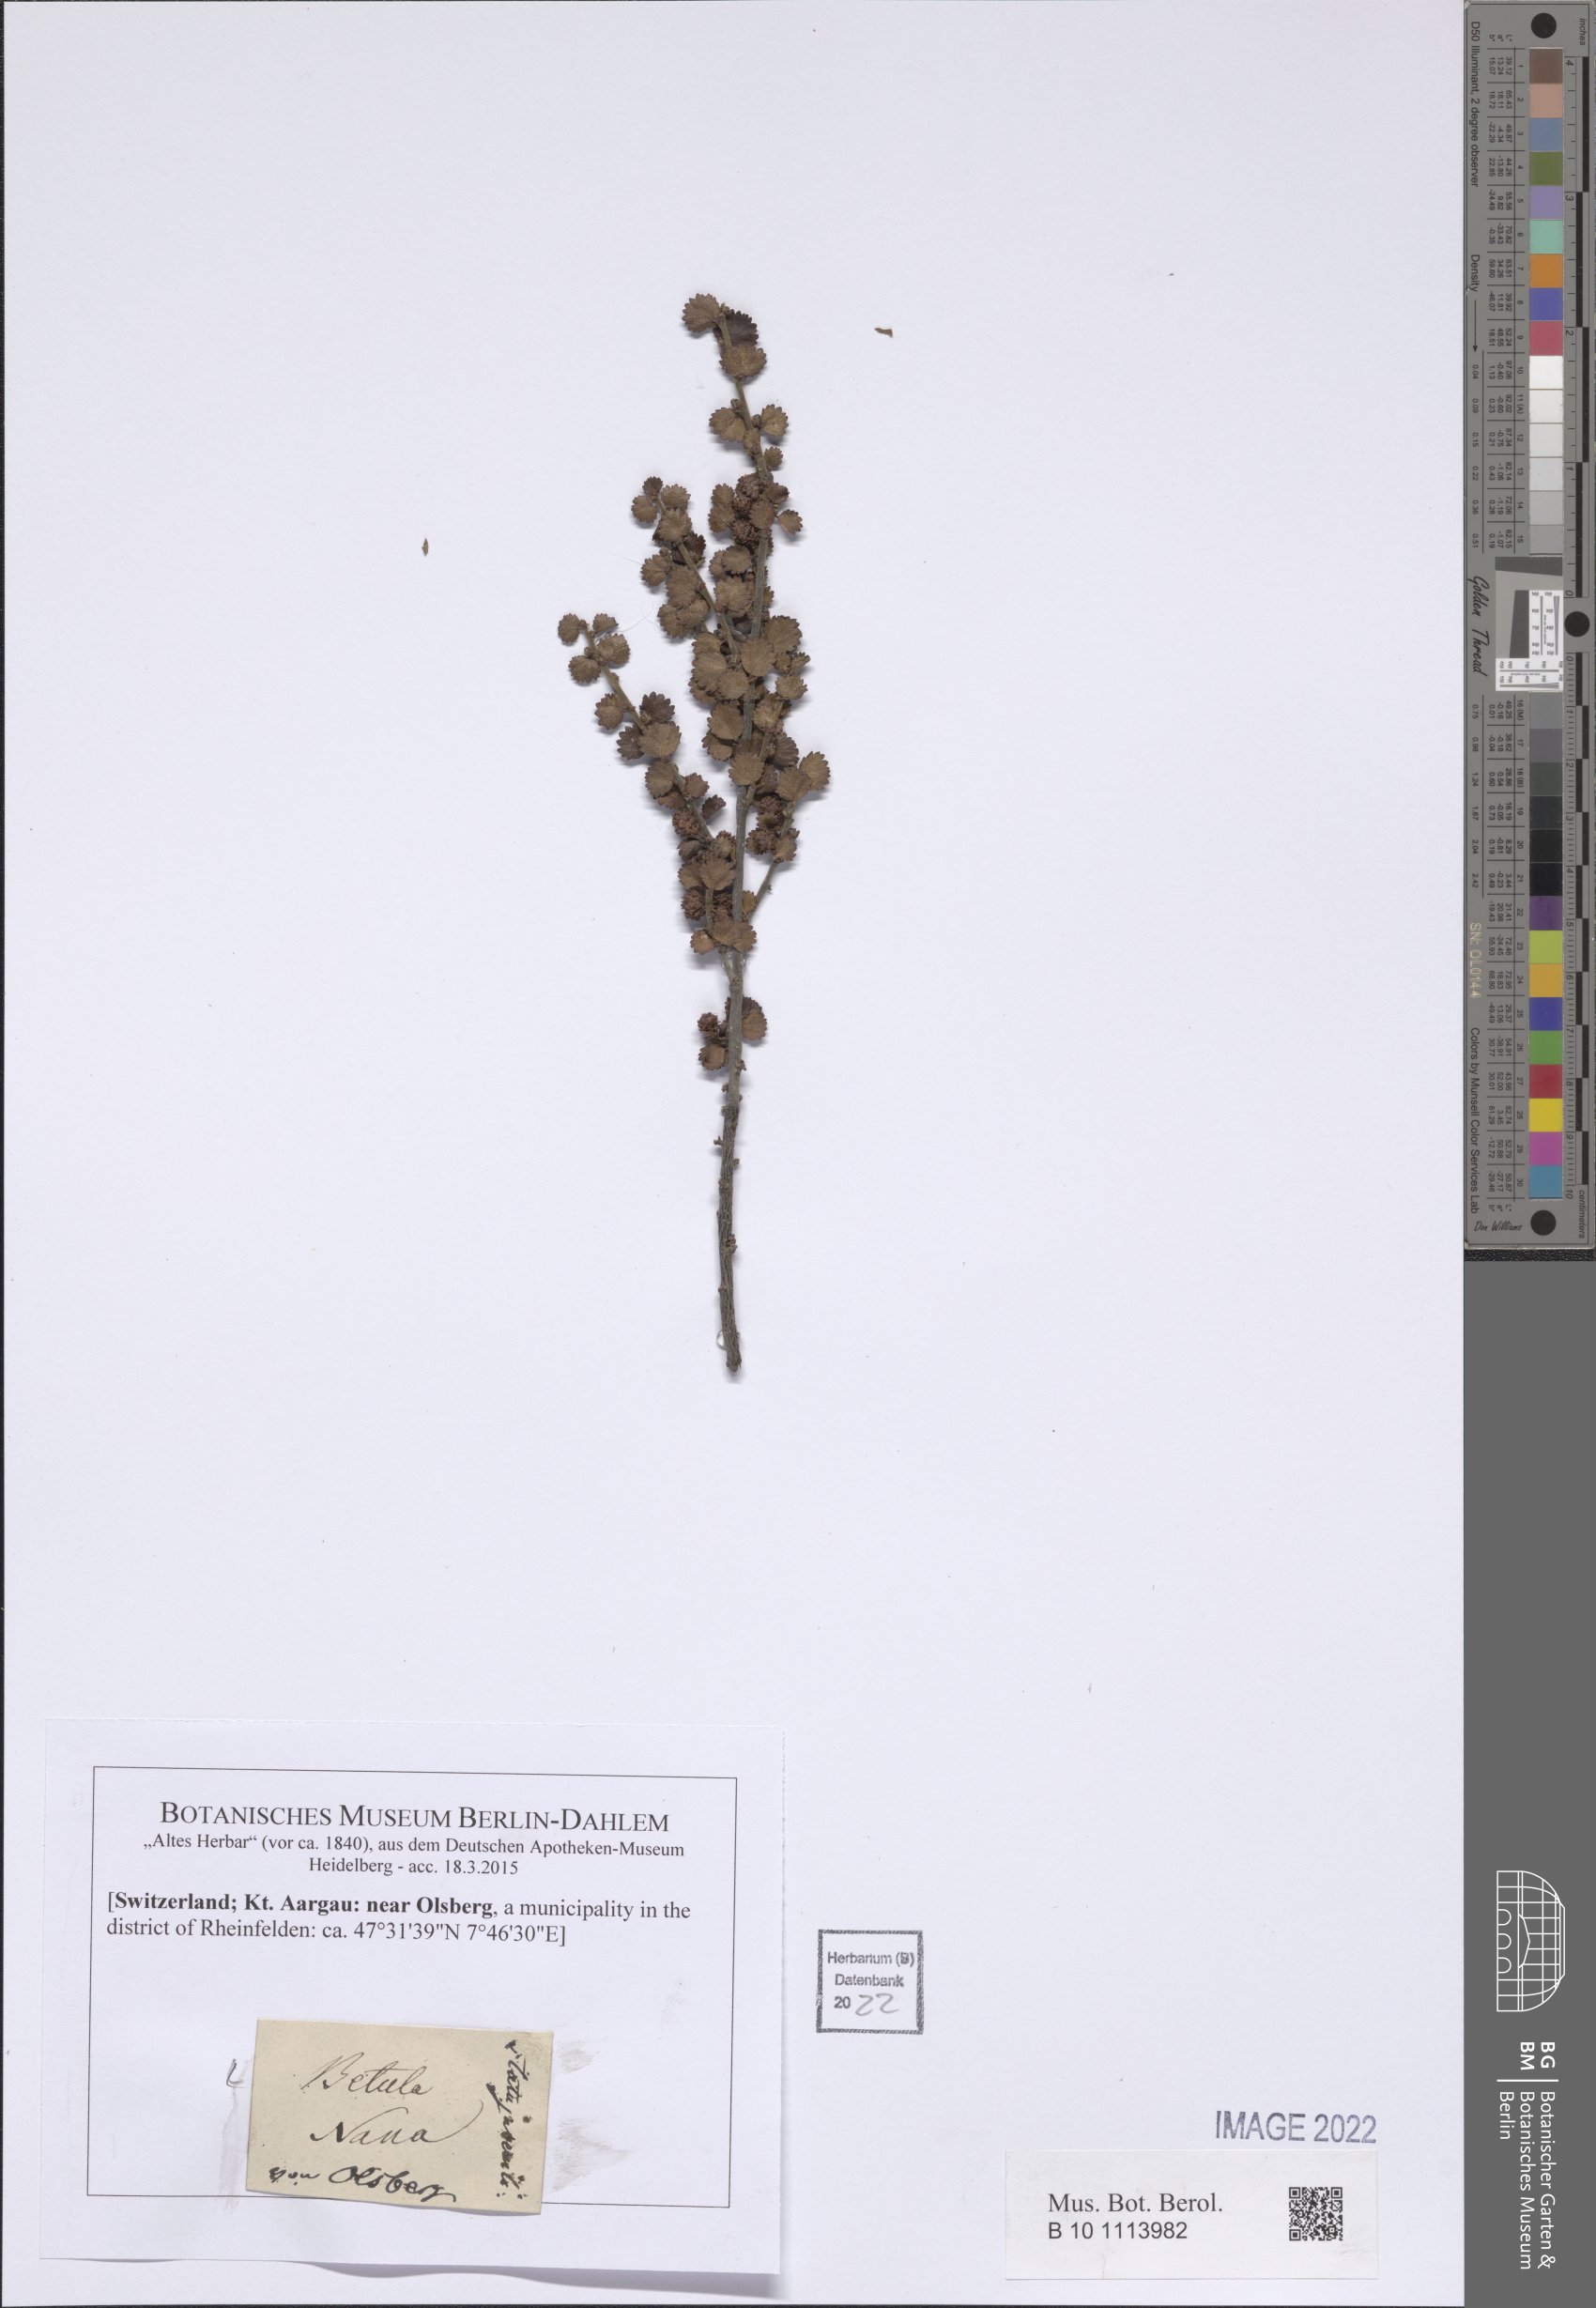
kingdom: Plantae
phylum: Tracheophyta
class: Magnoliopsida
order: Fagales
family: Betulaceae
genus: Betula
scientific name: Betula nana
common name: Arctic dwarf birch
